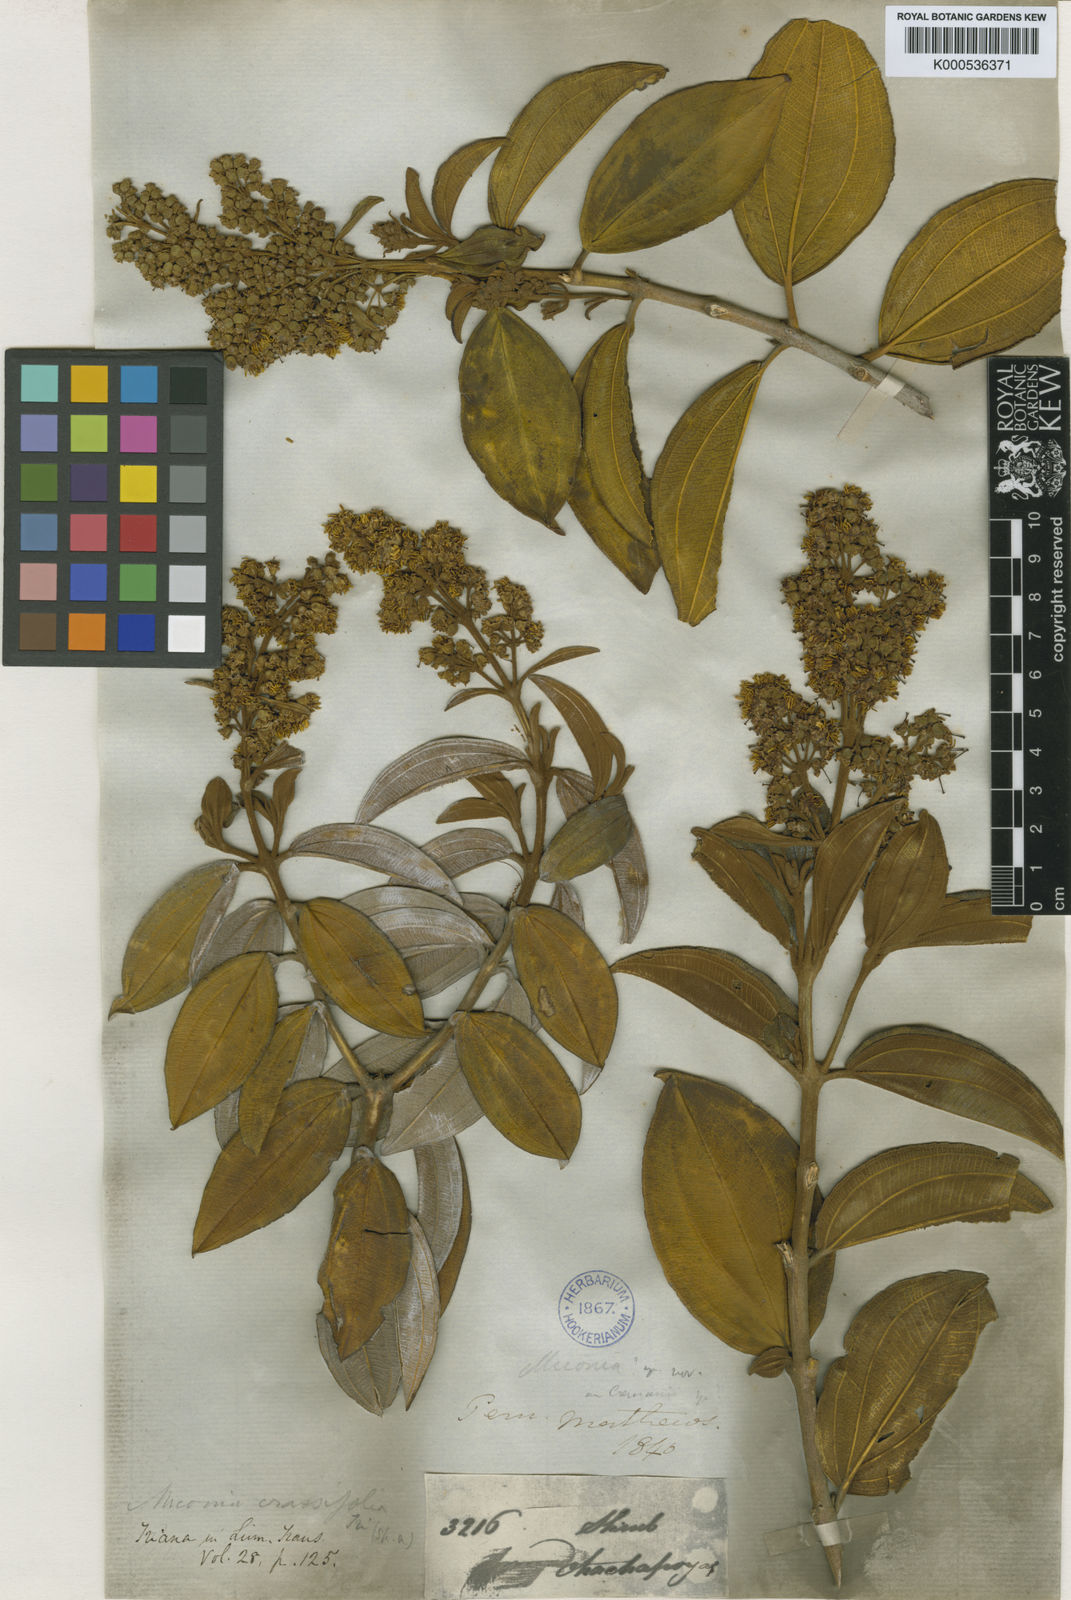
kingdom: Plantae
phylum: Tracheophyta
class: Magnoliopsida
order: Myrtales
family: Melastomataceae
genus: Miconia
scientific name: Miconia crassifolia
